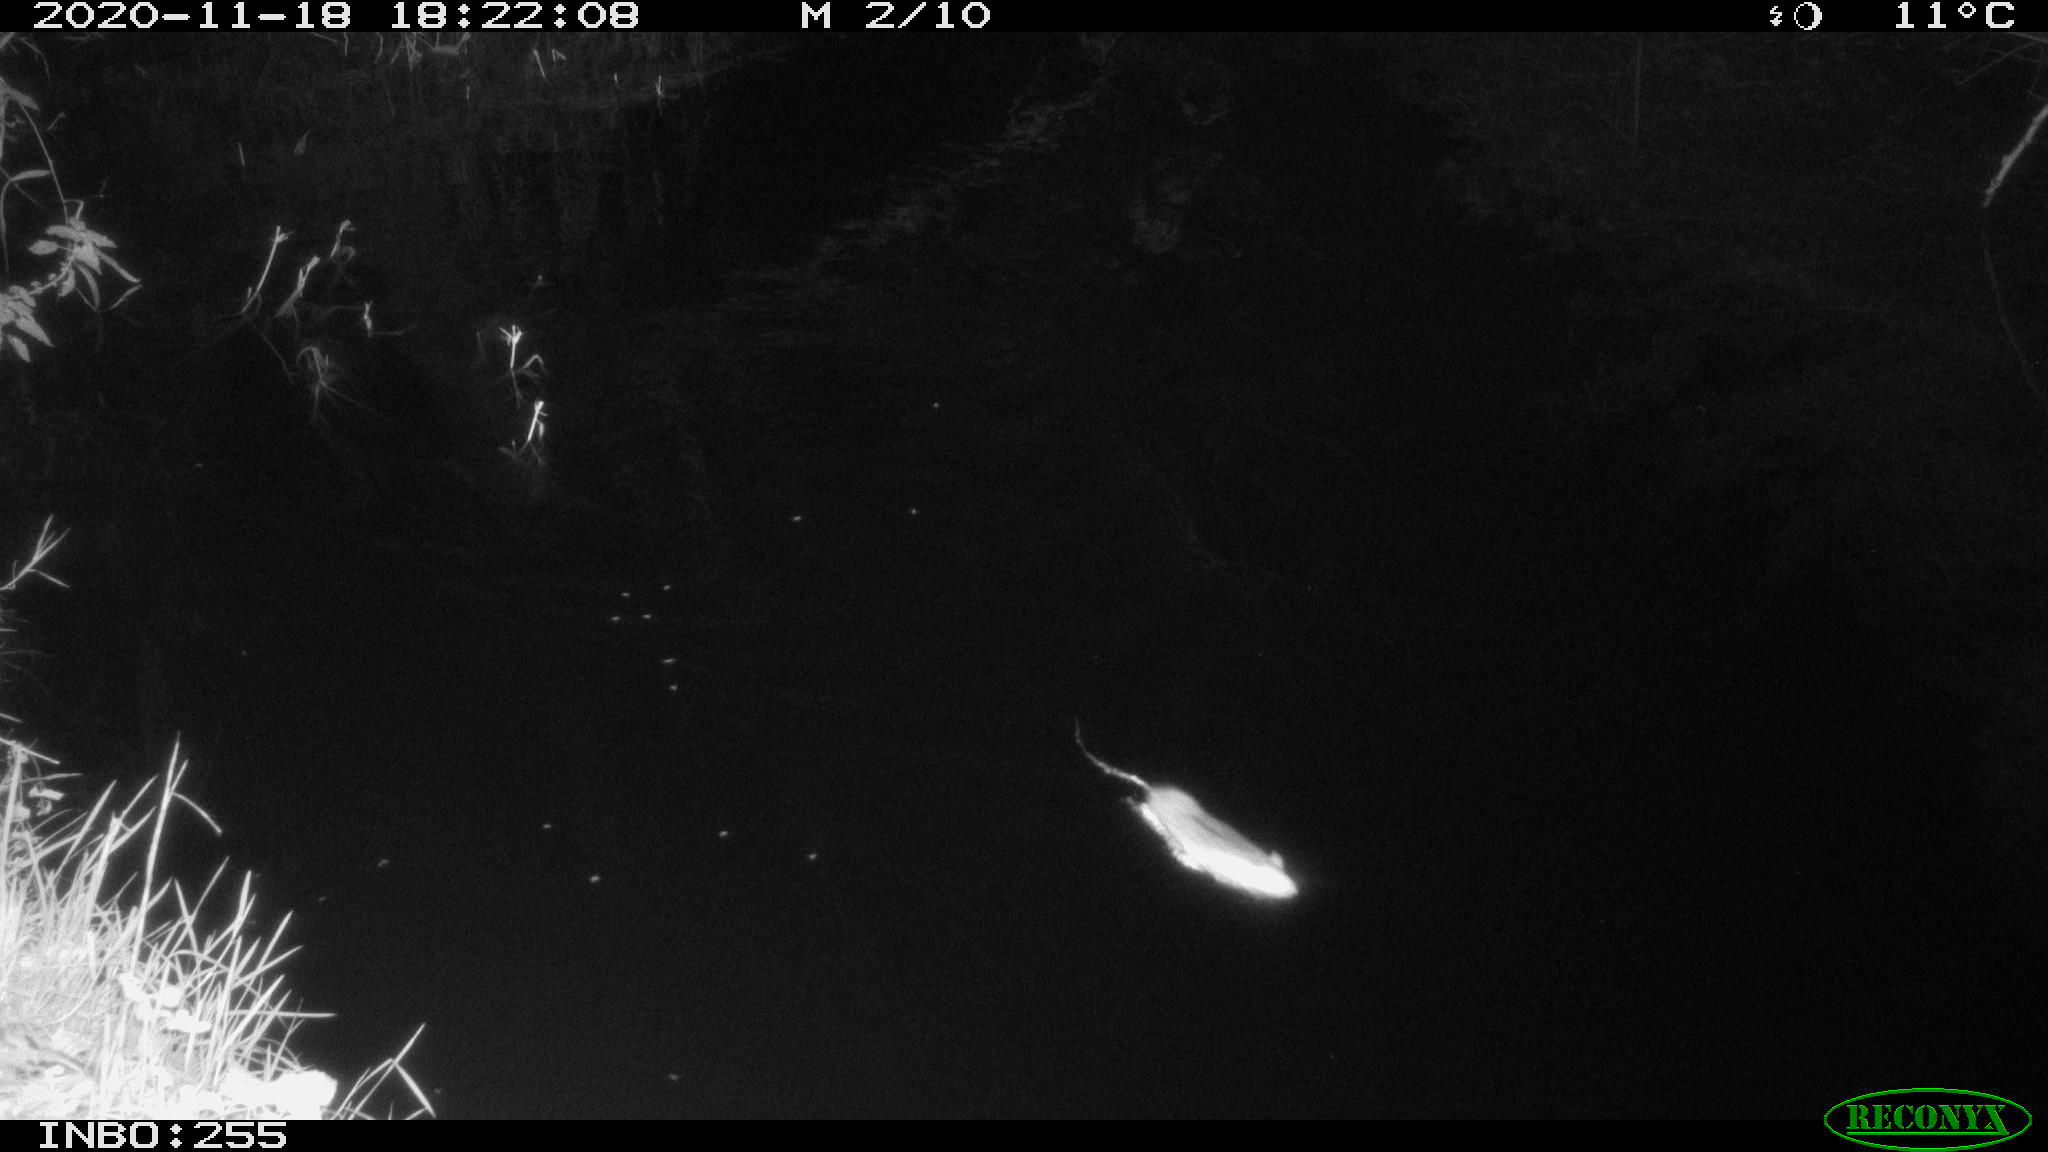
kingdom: Animalia
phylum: Chordata
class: Mammalia
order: Rodentia
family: Muridae
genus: Rattus
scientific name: Rattus norvegicus
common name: Brown rat
